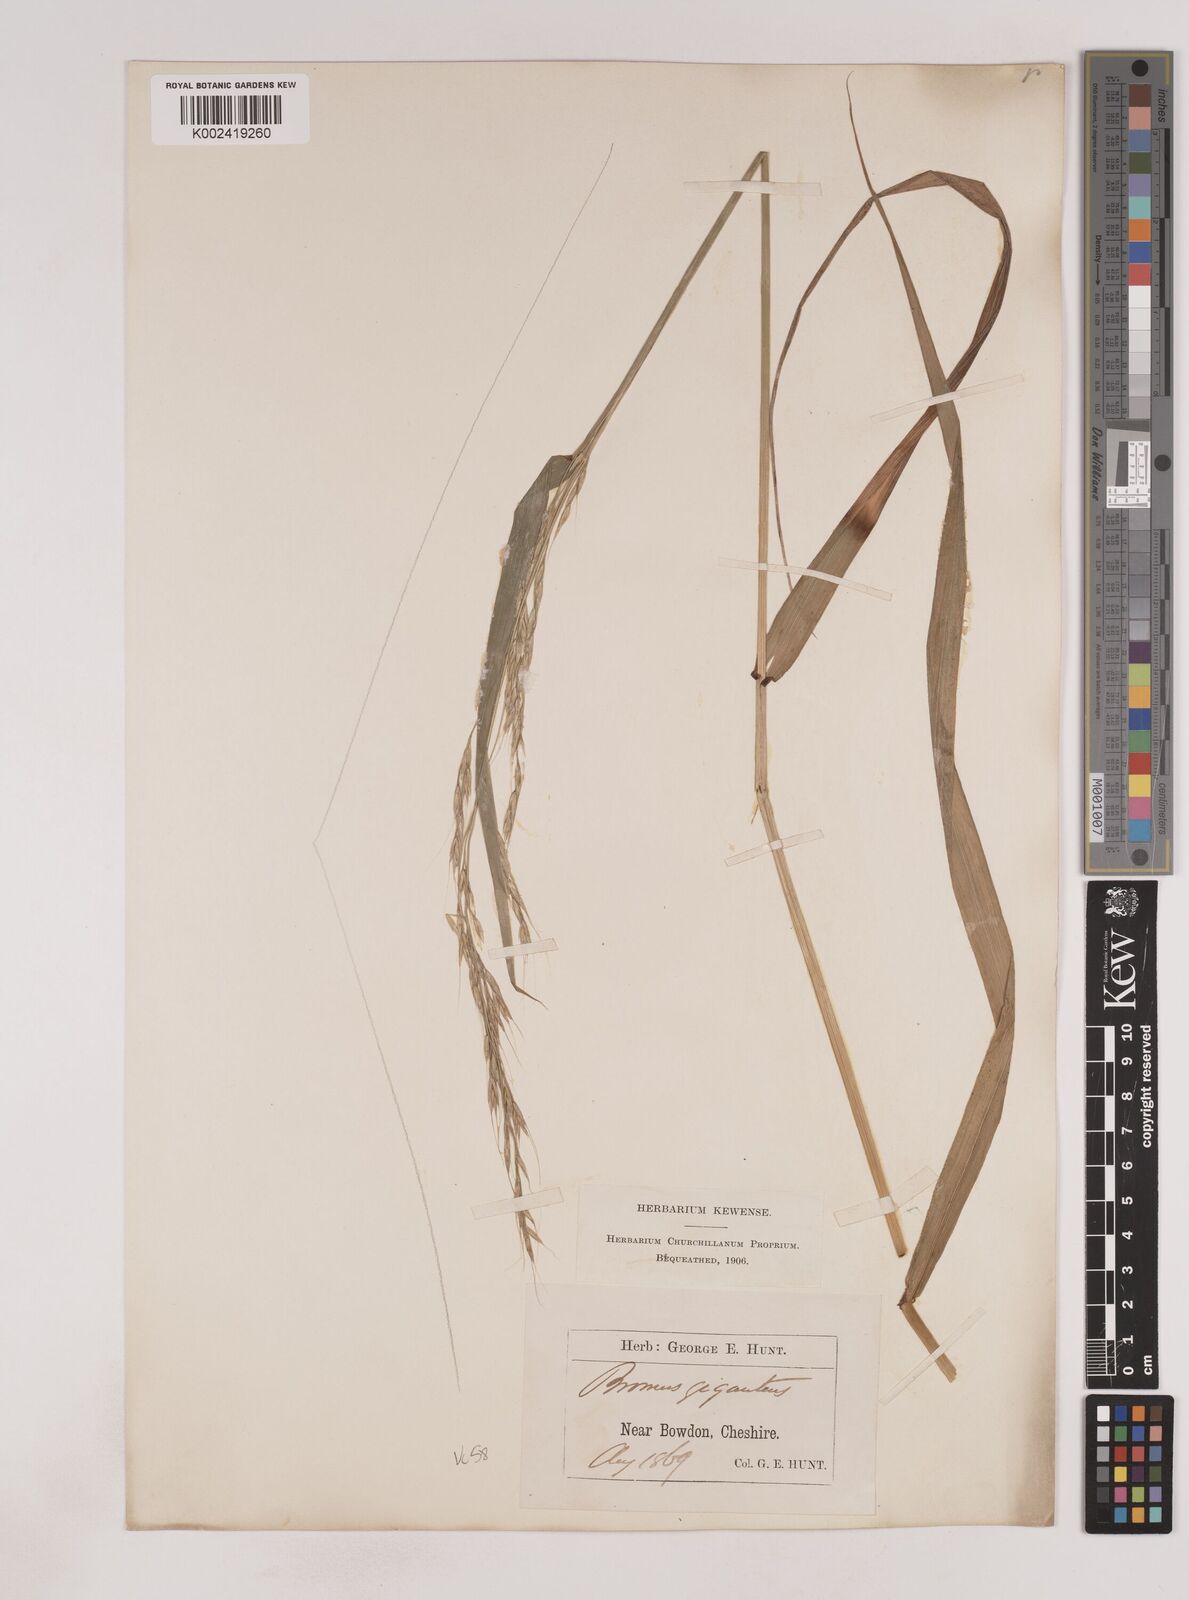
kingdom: Plantae
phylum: Tracheophyta
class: Liliopsida
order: Poales
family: Poaceae
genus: Lolium
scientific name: Lolium giganteum
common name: Giant fescue
